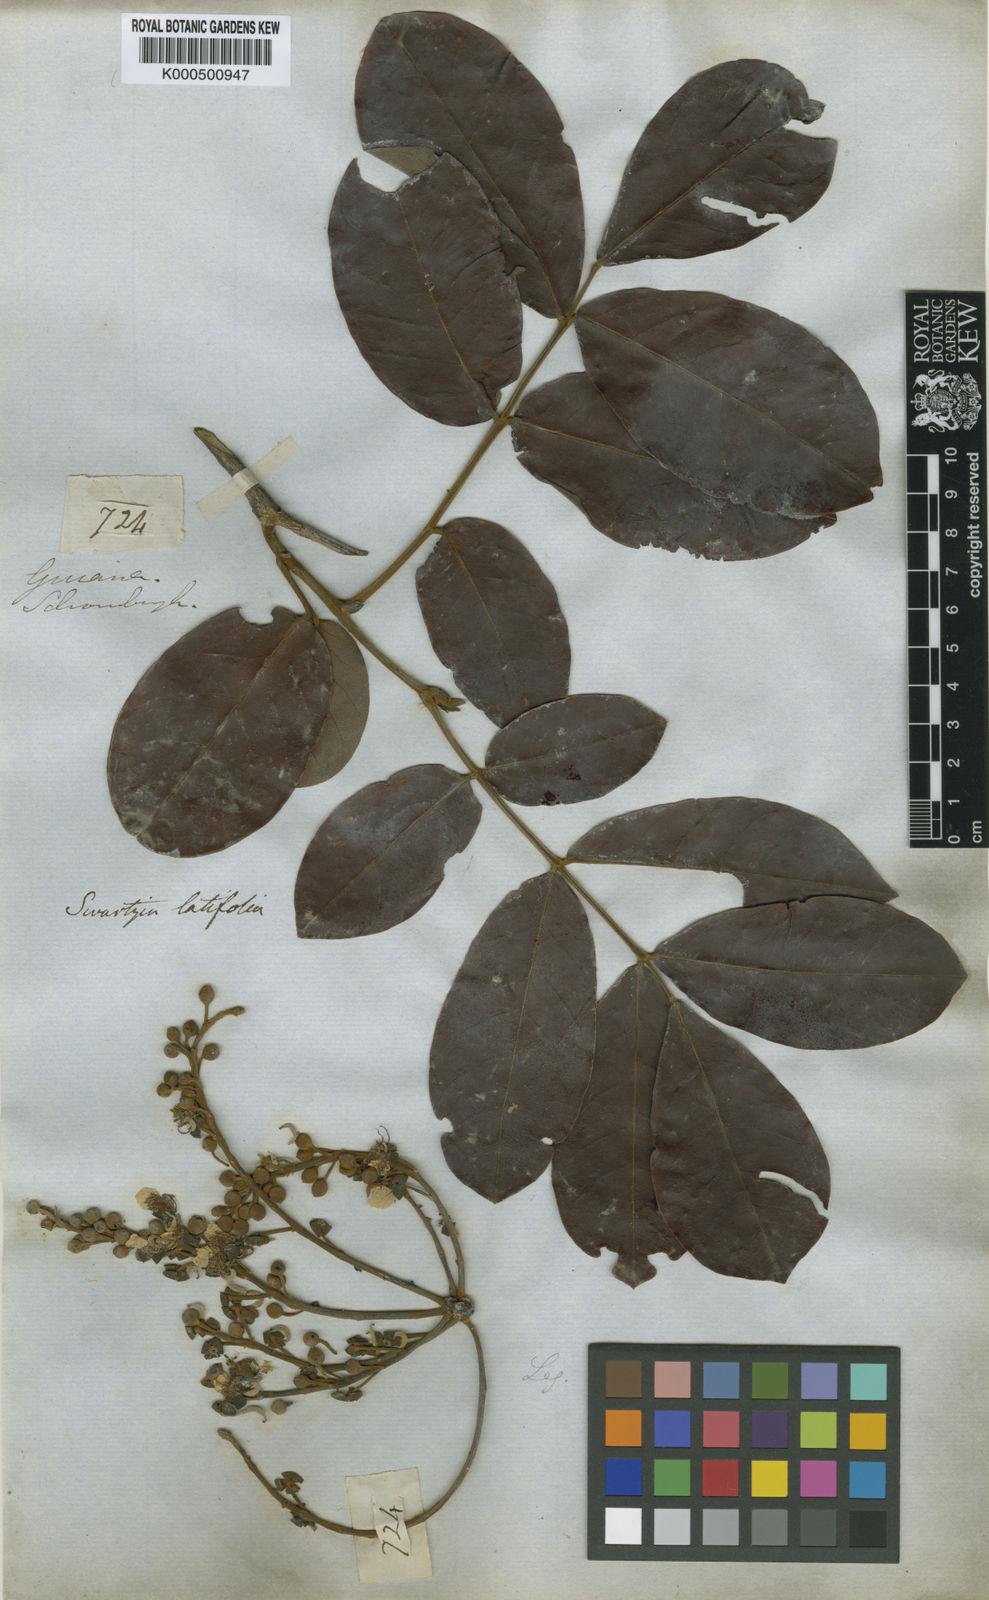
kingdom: Plantae
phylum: Tracheophyta
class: Magnoliopsida
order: Fabales
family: Fabaceae
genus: Swartzia
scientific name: Swartzia latifolia
